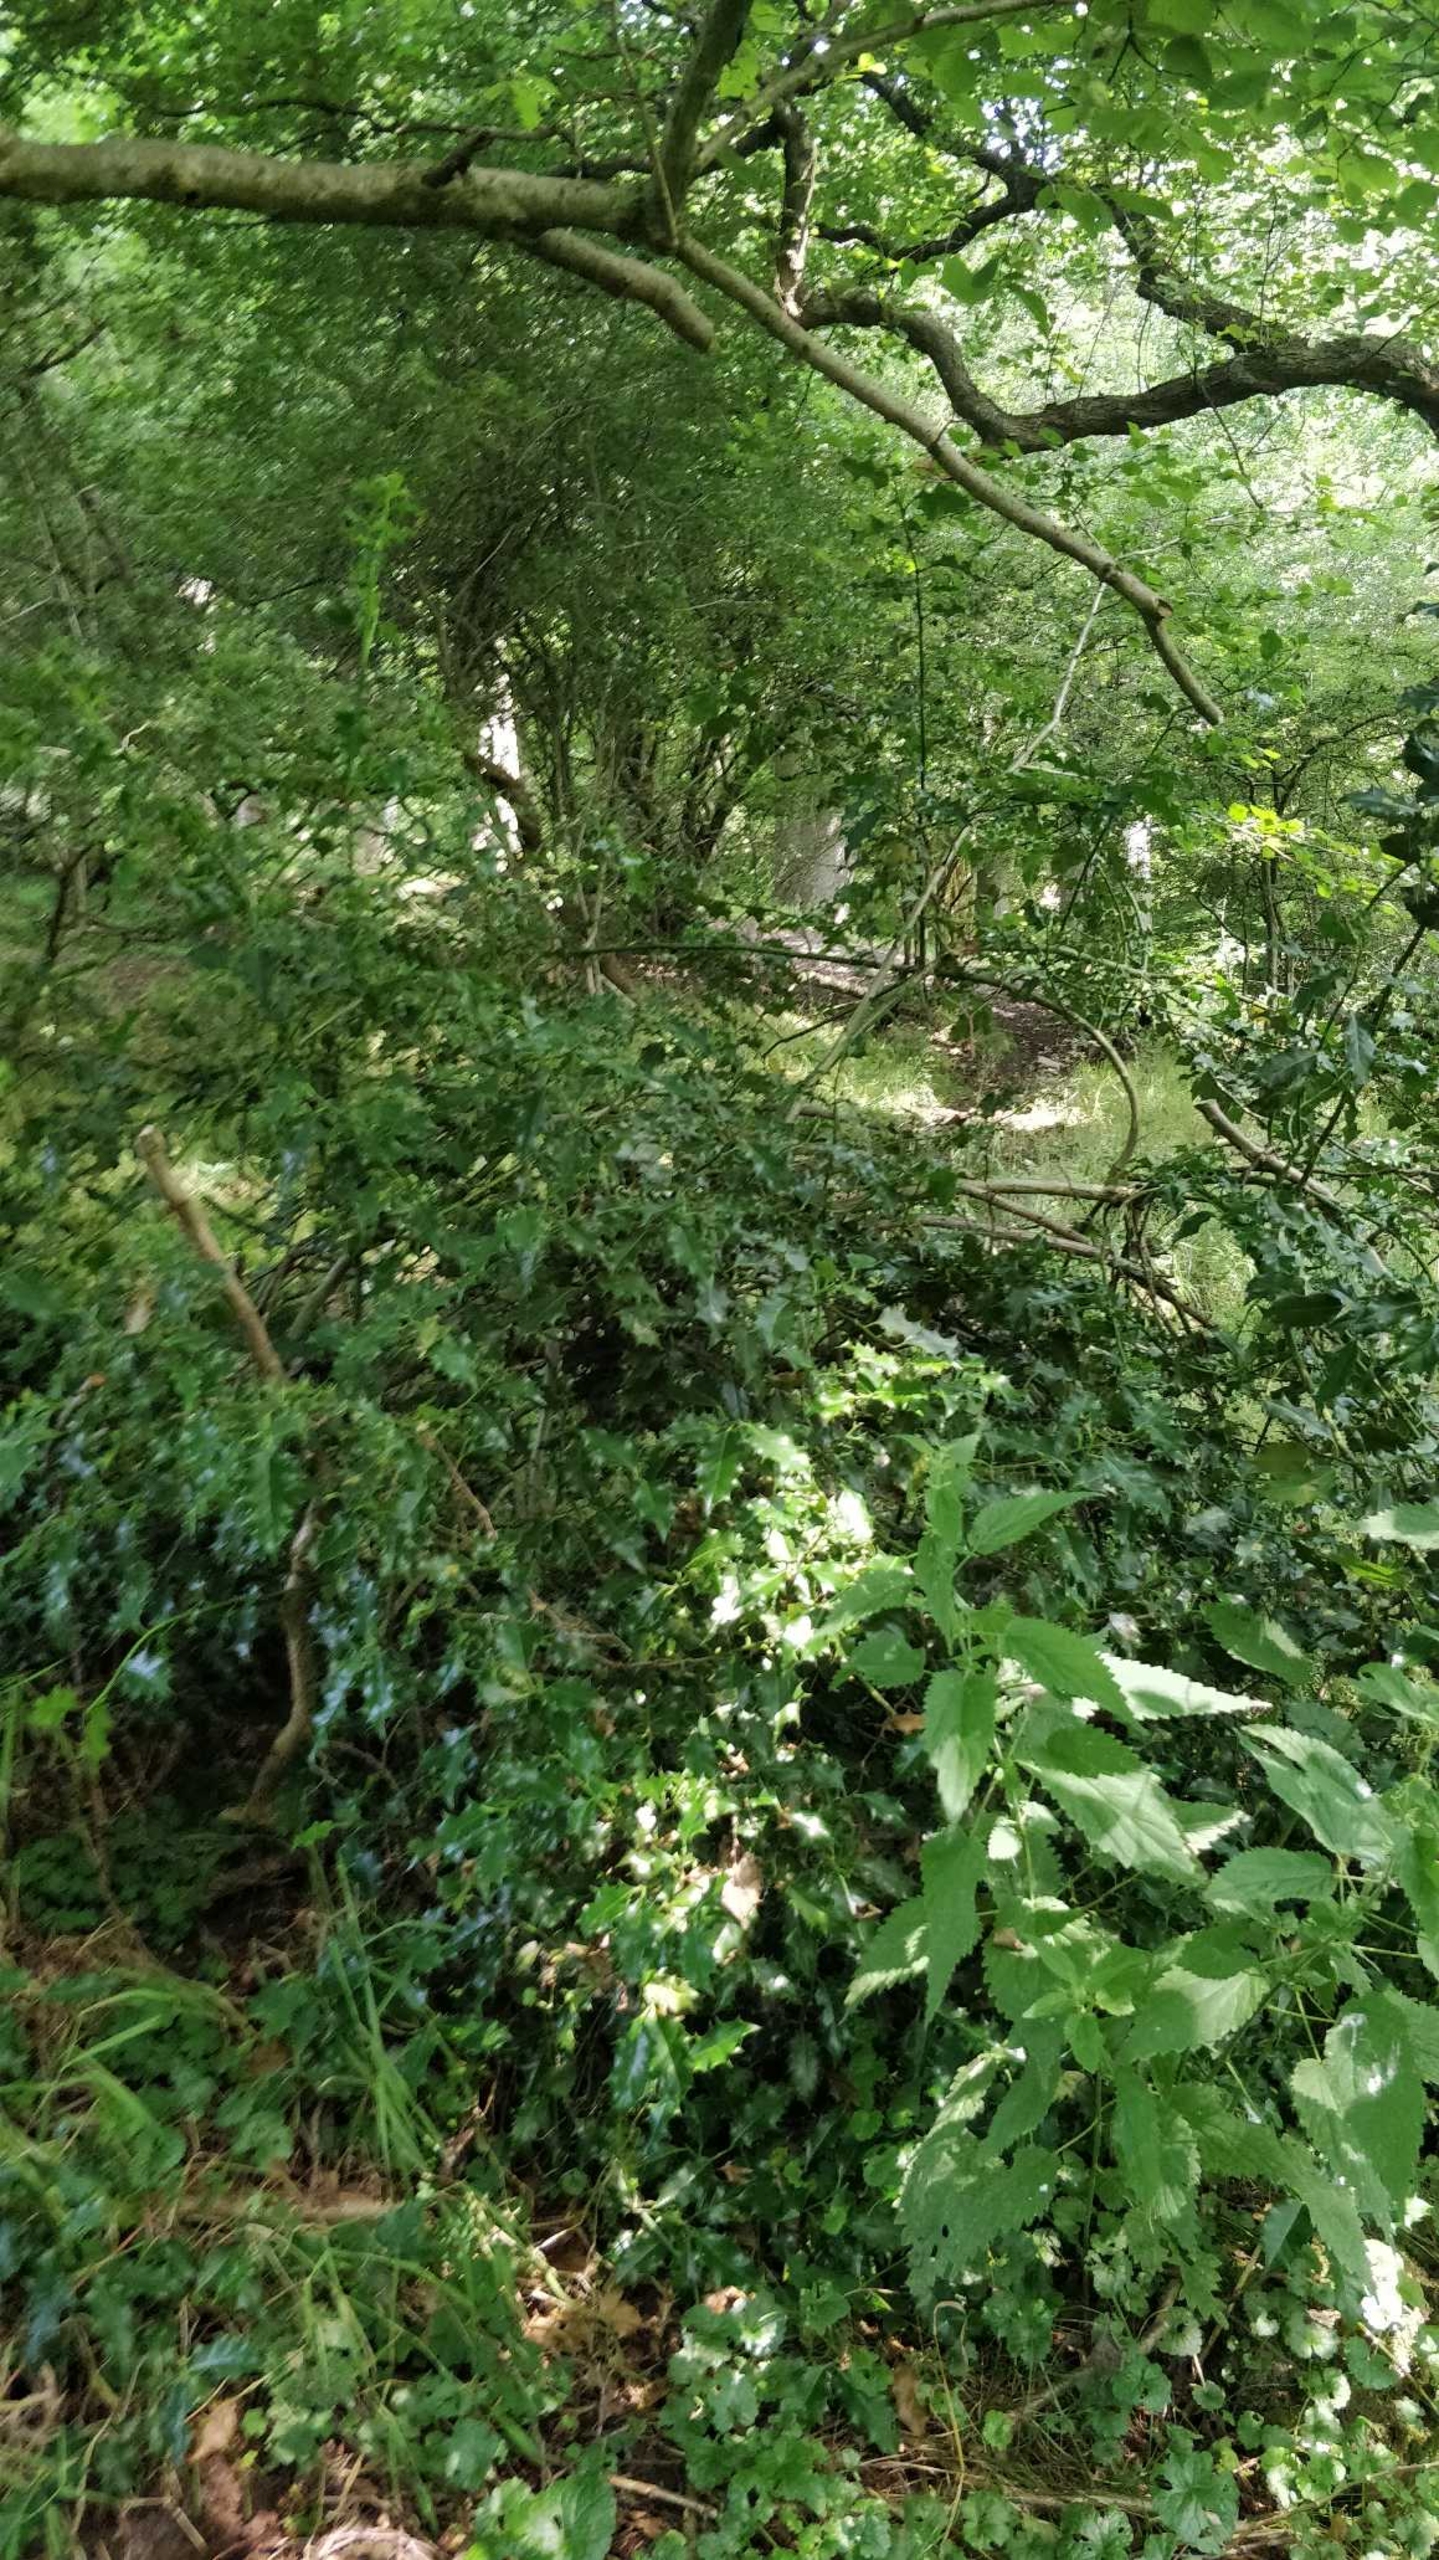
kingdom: Plantae
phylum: Tracheophyta
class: Magnoliopsida
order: Aquifoliales
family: Aquifoliaceae
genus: Ilex
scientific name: Ilex aquifolium
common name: Kristtorn
